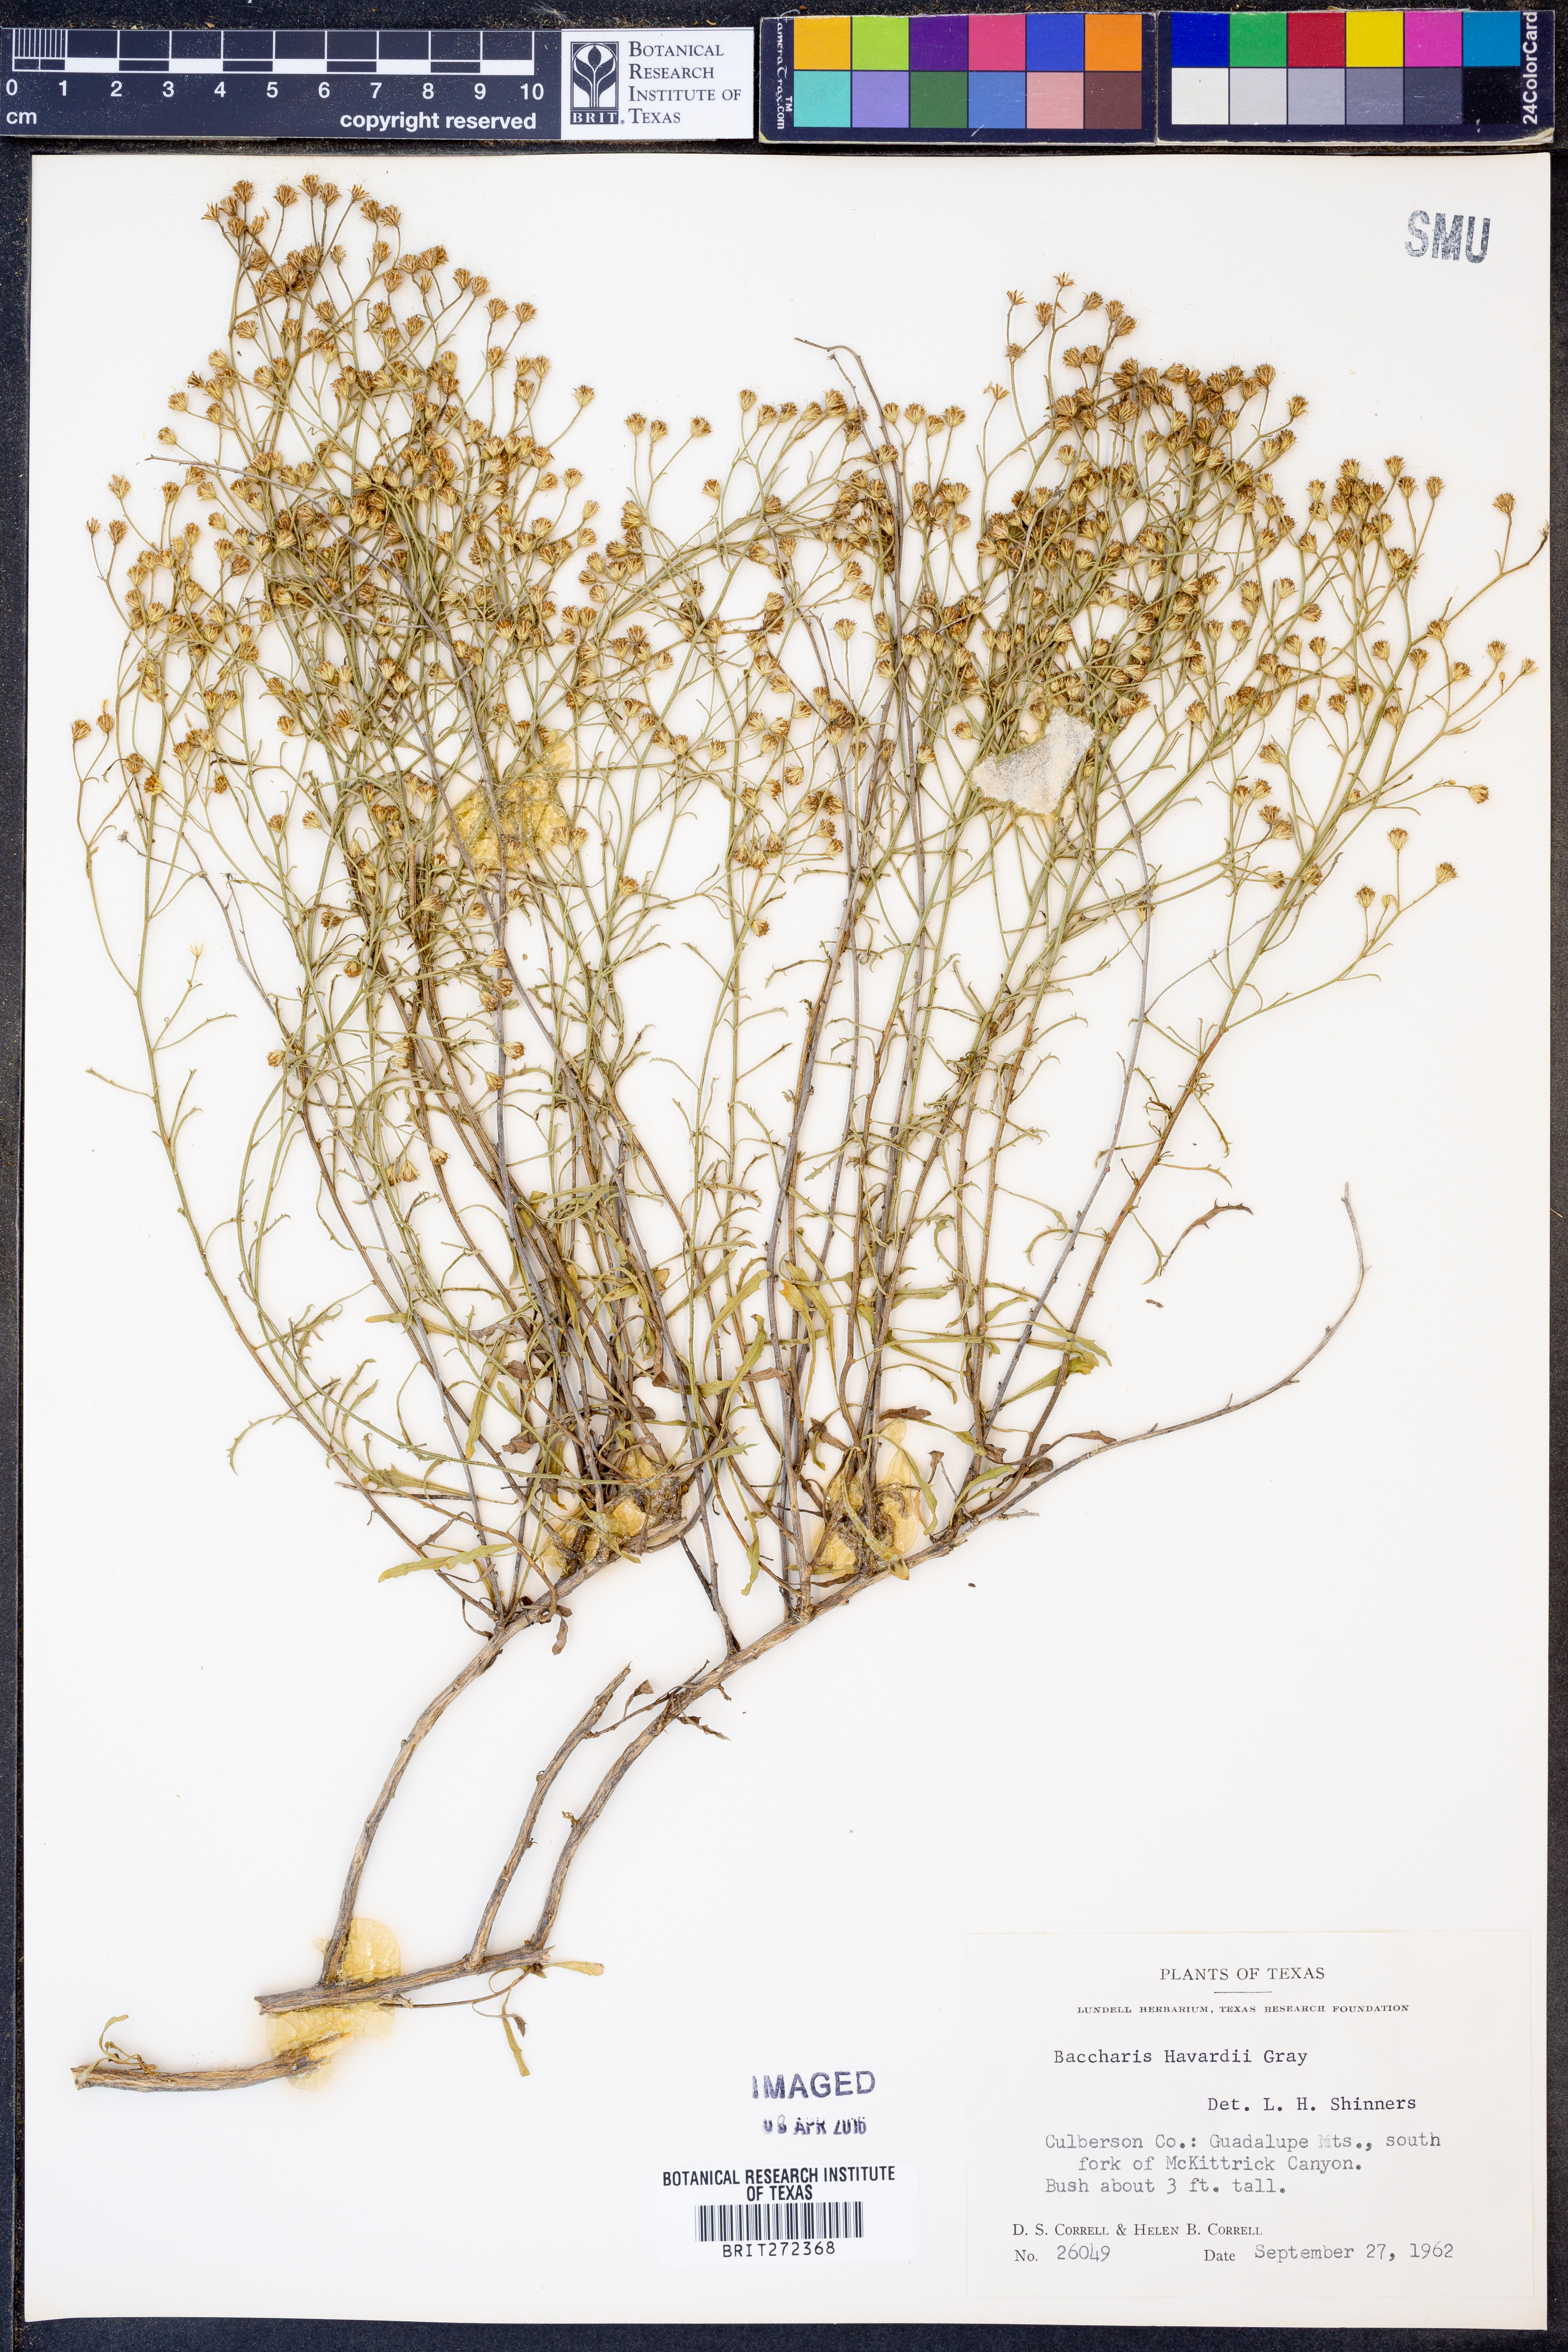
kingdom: Plantae
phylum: Tracheophyta
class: Magnoliopsida
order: Asterales
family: Asteraceae
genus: Baccharis
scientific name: Baccharis havardii
